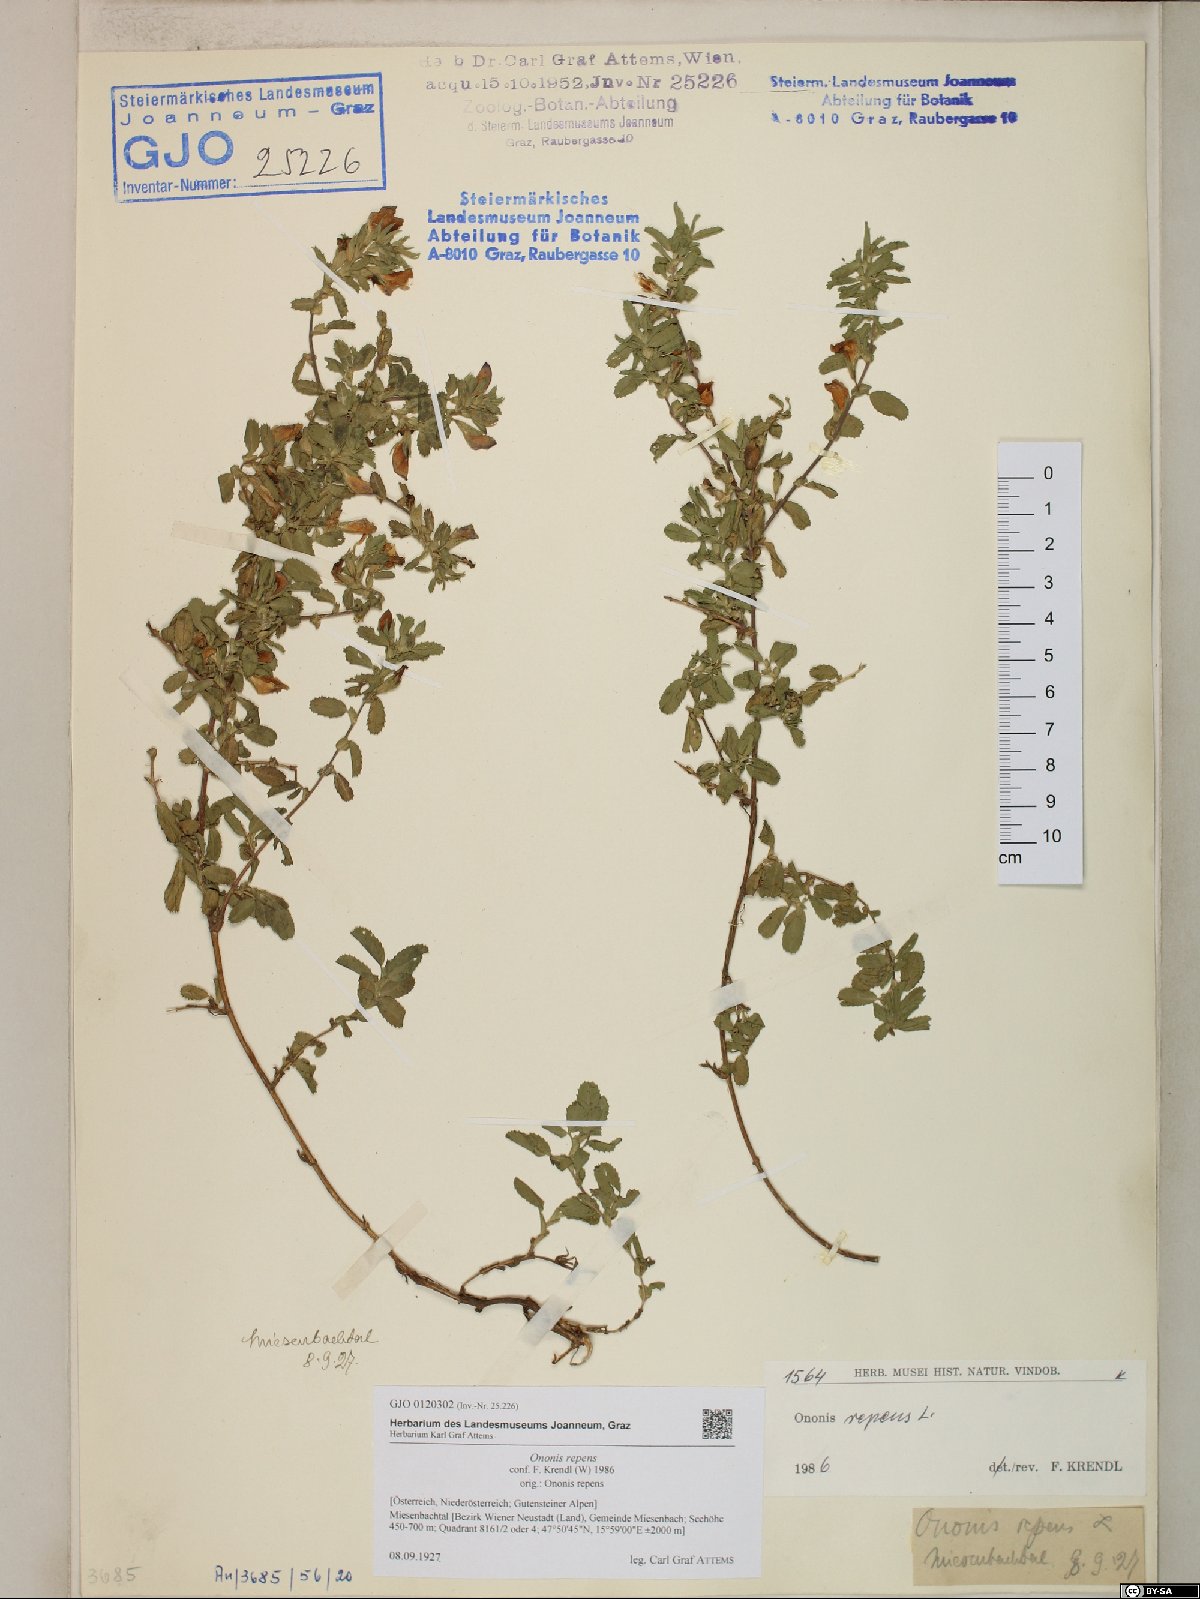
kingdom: Plantae
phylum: Tracheophyta
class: Magnoliopsida
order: Fabales
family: Fabaceae
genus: Ononis
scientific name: Ononis spinosa
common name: Spiny restharrow
